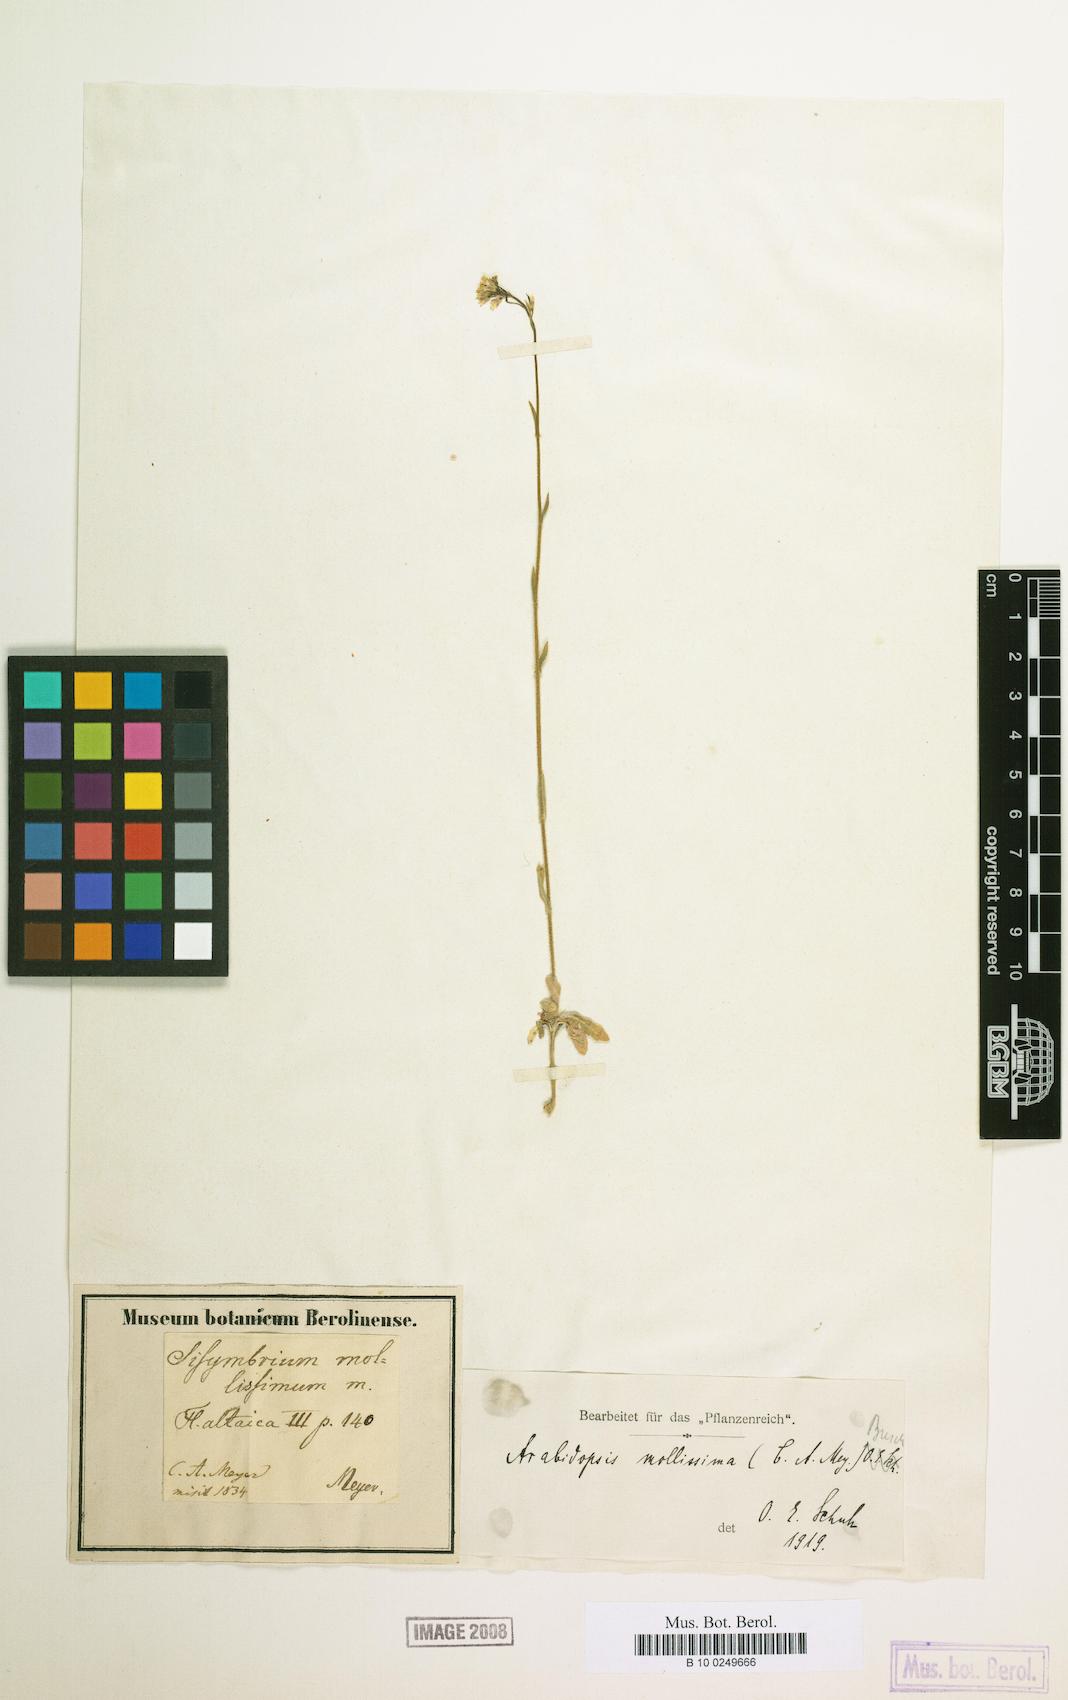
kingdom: Plantae
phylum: Tracheophyta
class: Magnoliopsida
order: Brassicales
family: Brassicaceae
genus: Crucihimalaya
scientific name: Crucihimalaya mollissima
